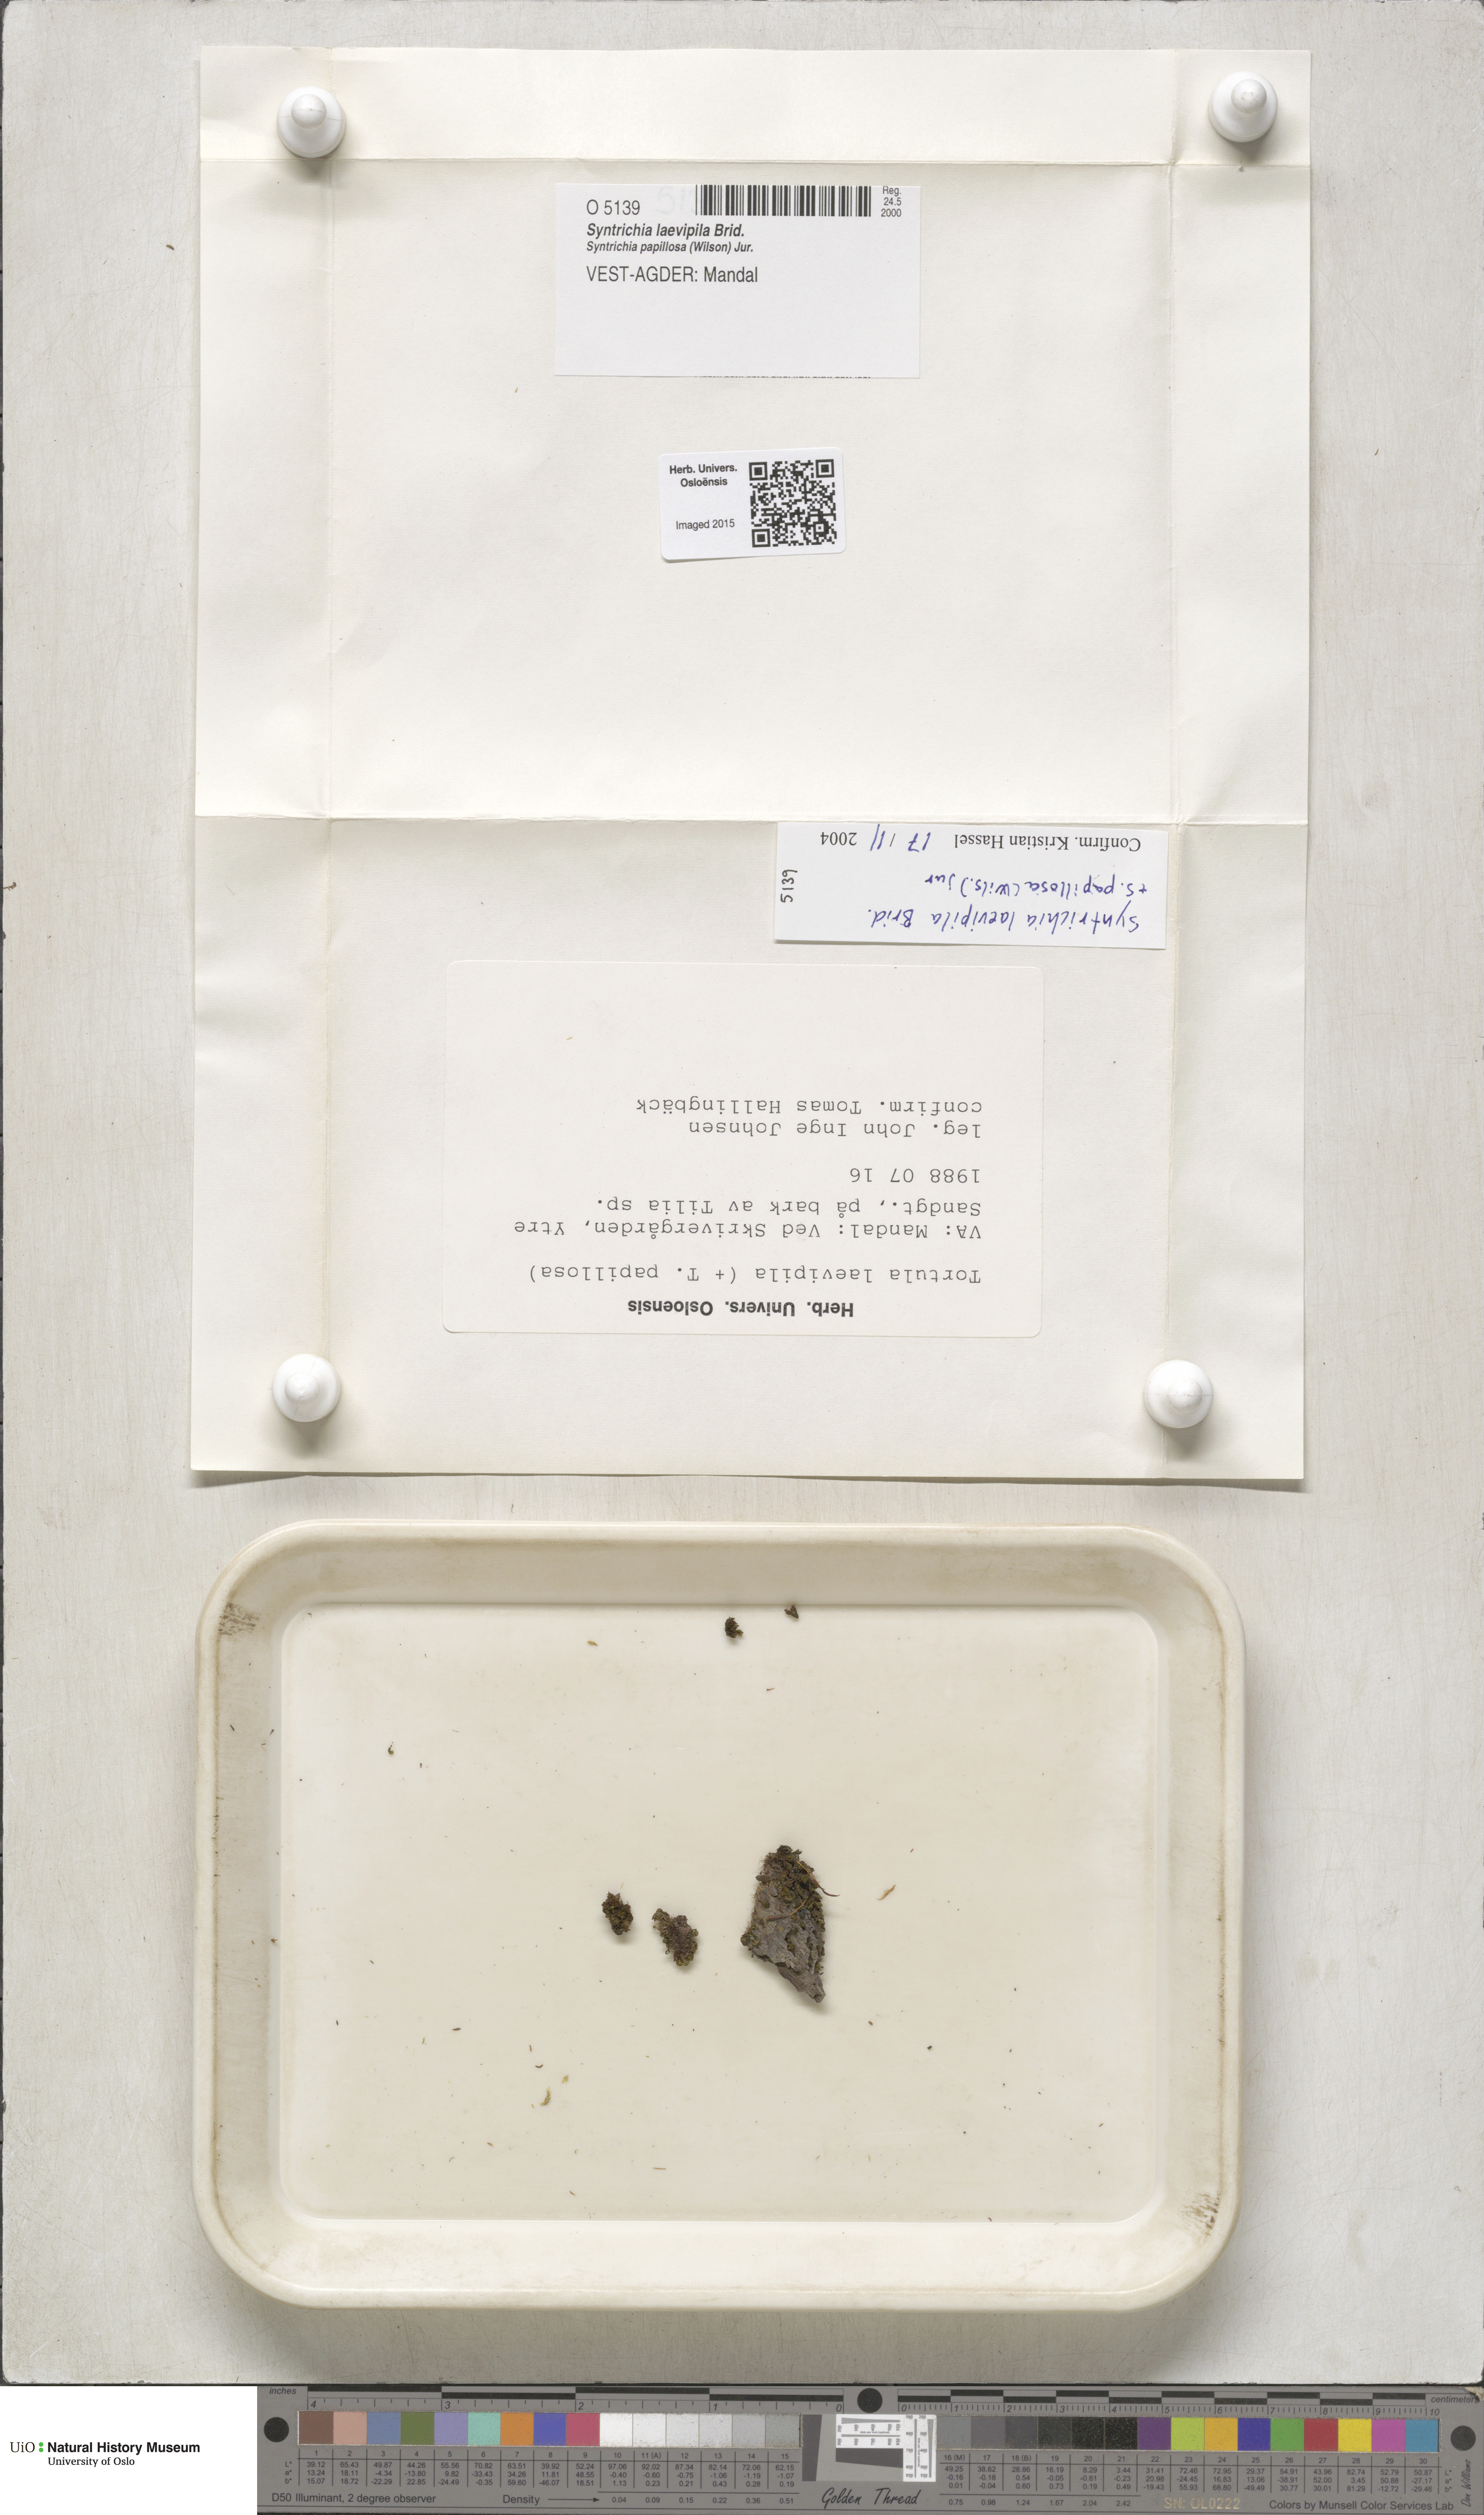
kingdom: Plantae
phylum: Bryophyta
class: Bryopsida
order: Pottiales
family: Pottiaceae
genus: Syntrichia
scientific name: Syntrichia laevipila
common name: Small hairy screw-moss
